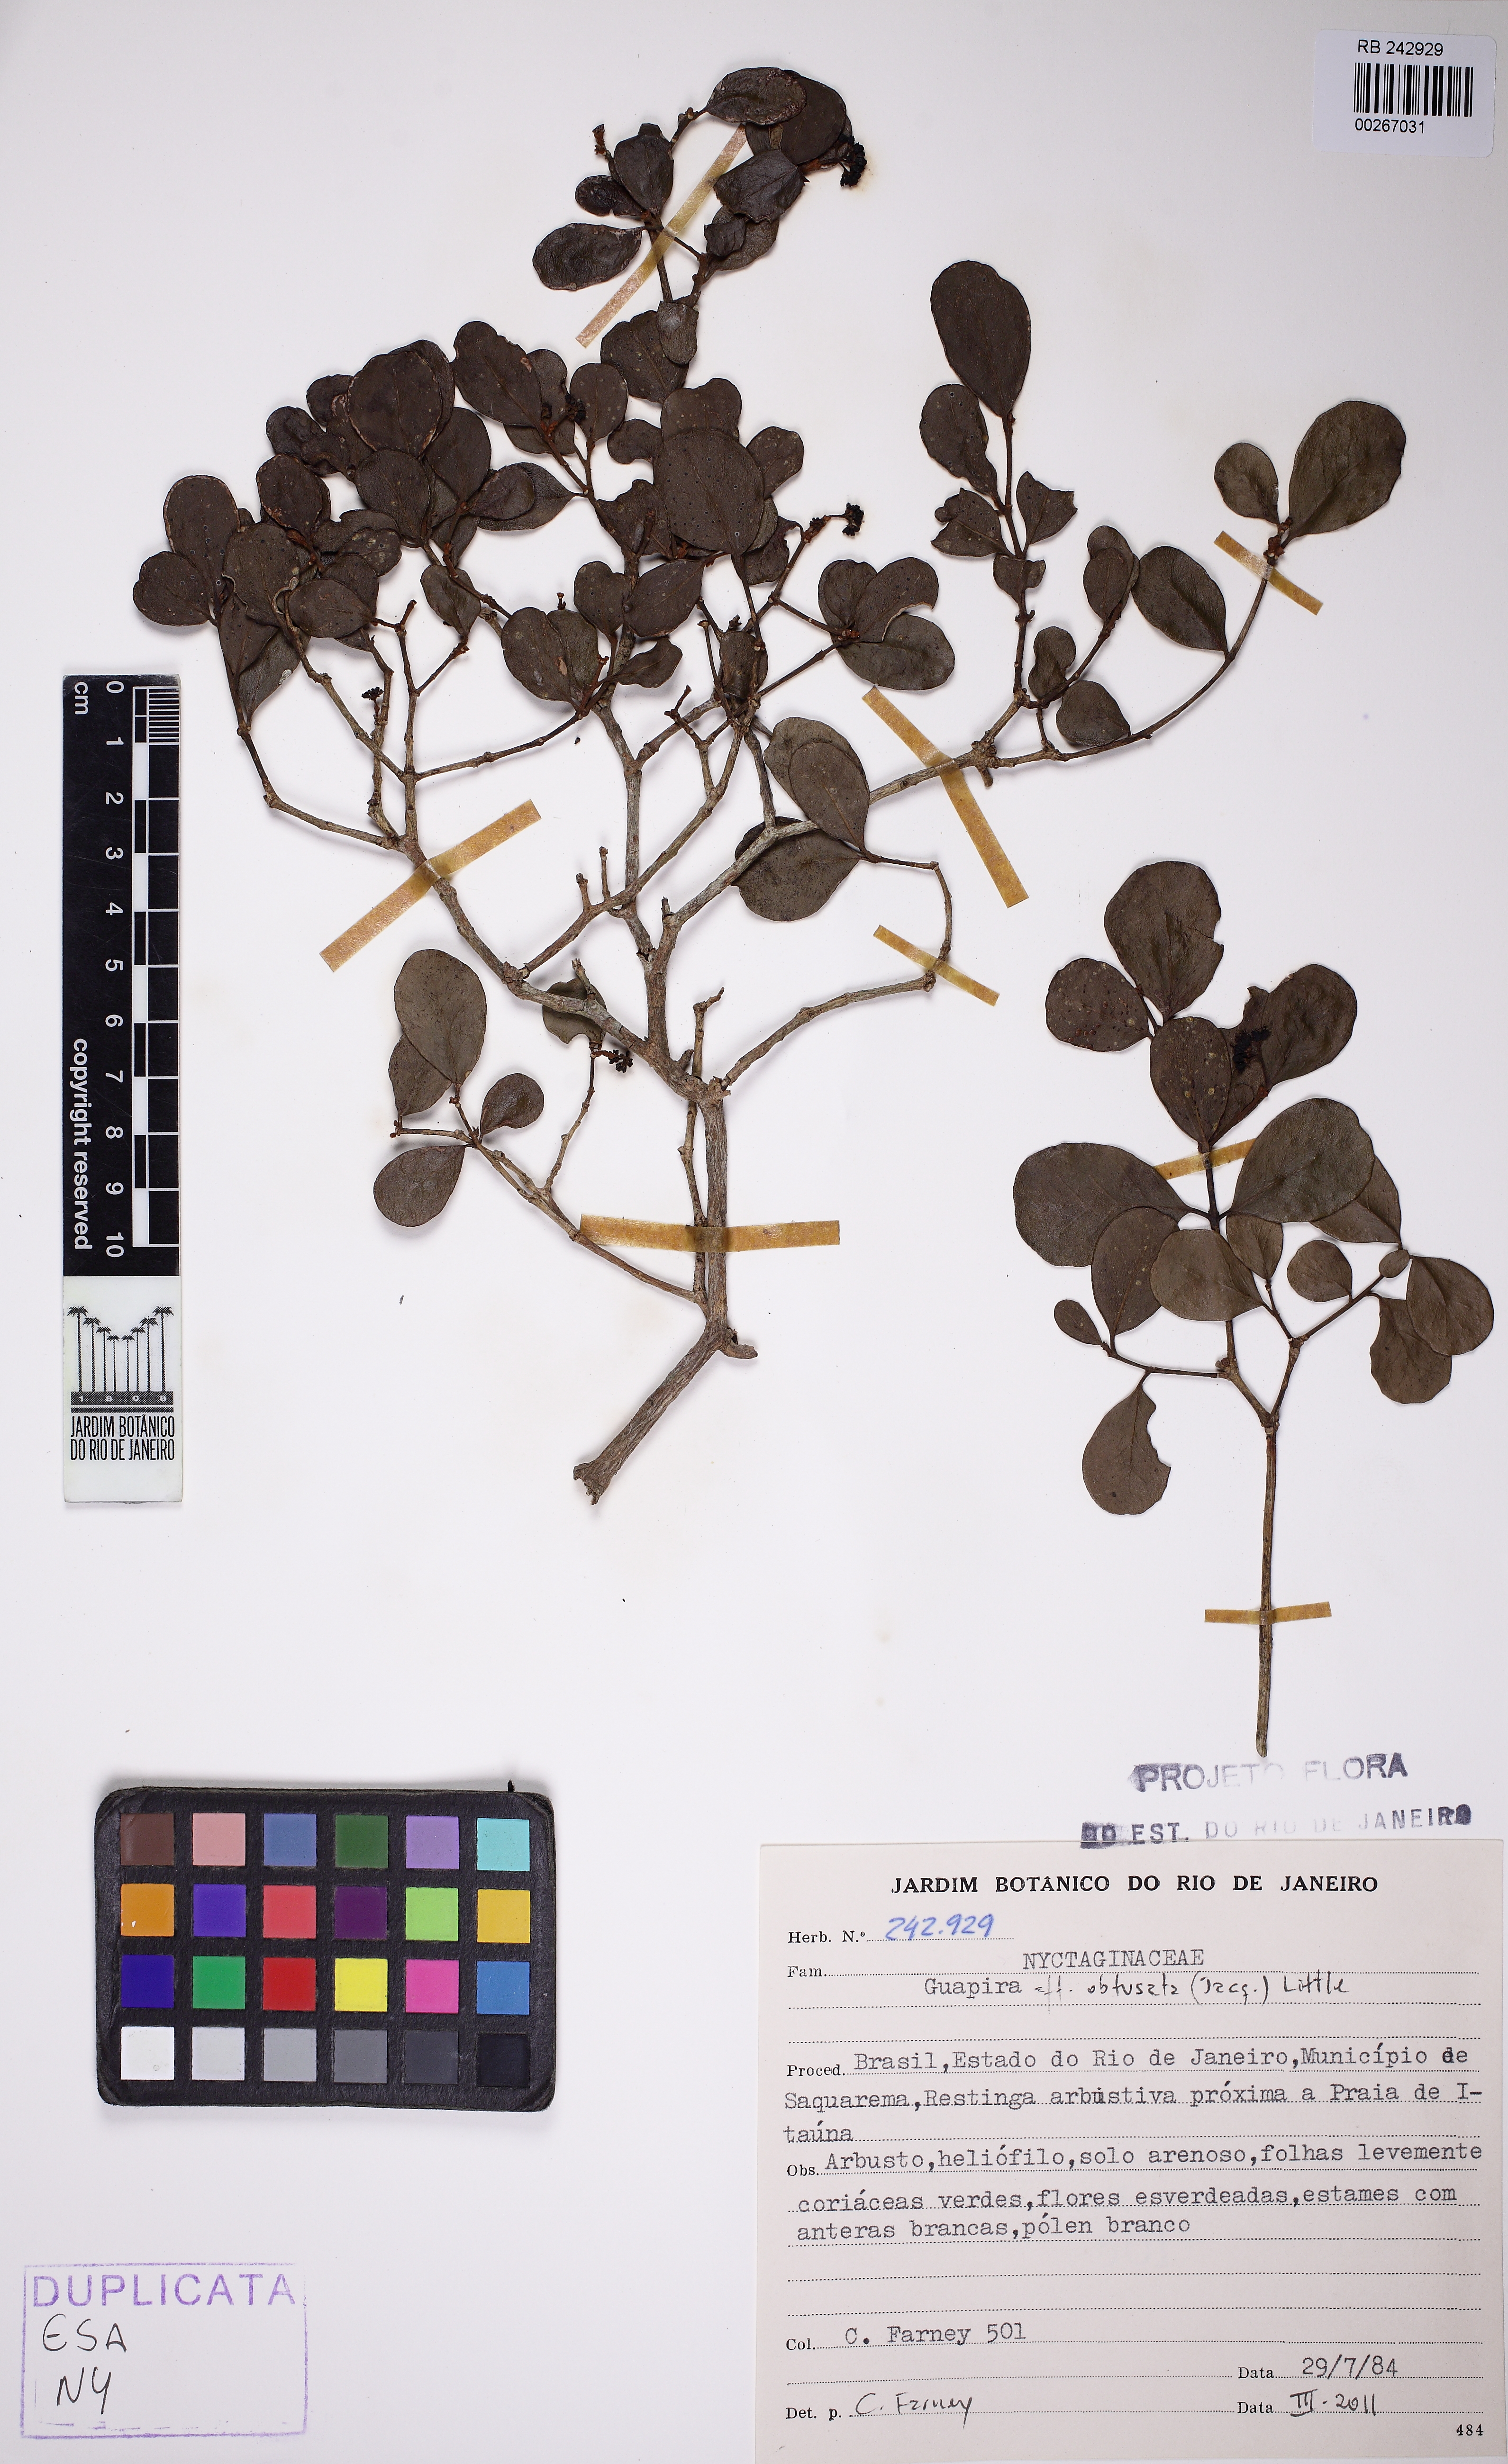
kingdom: Plantae
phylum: Tracheophyta
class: Magnoliopsida
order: Caryophyllales
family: Nyctaginaceae
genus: Guapira
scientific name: Guapira obtusata
